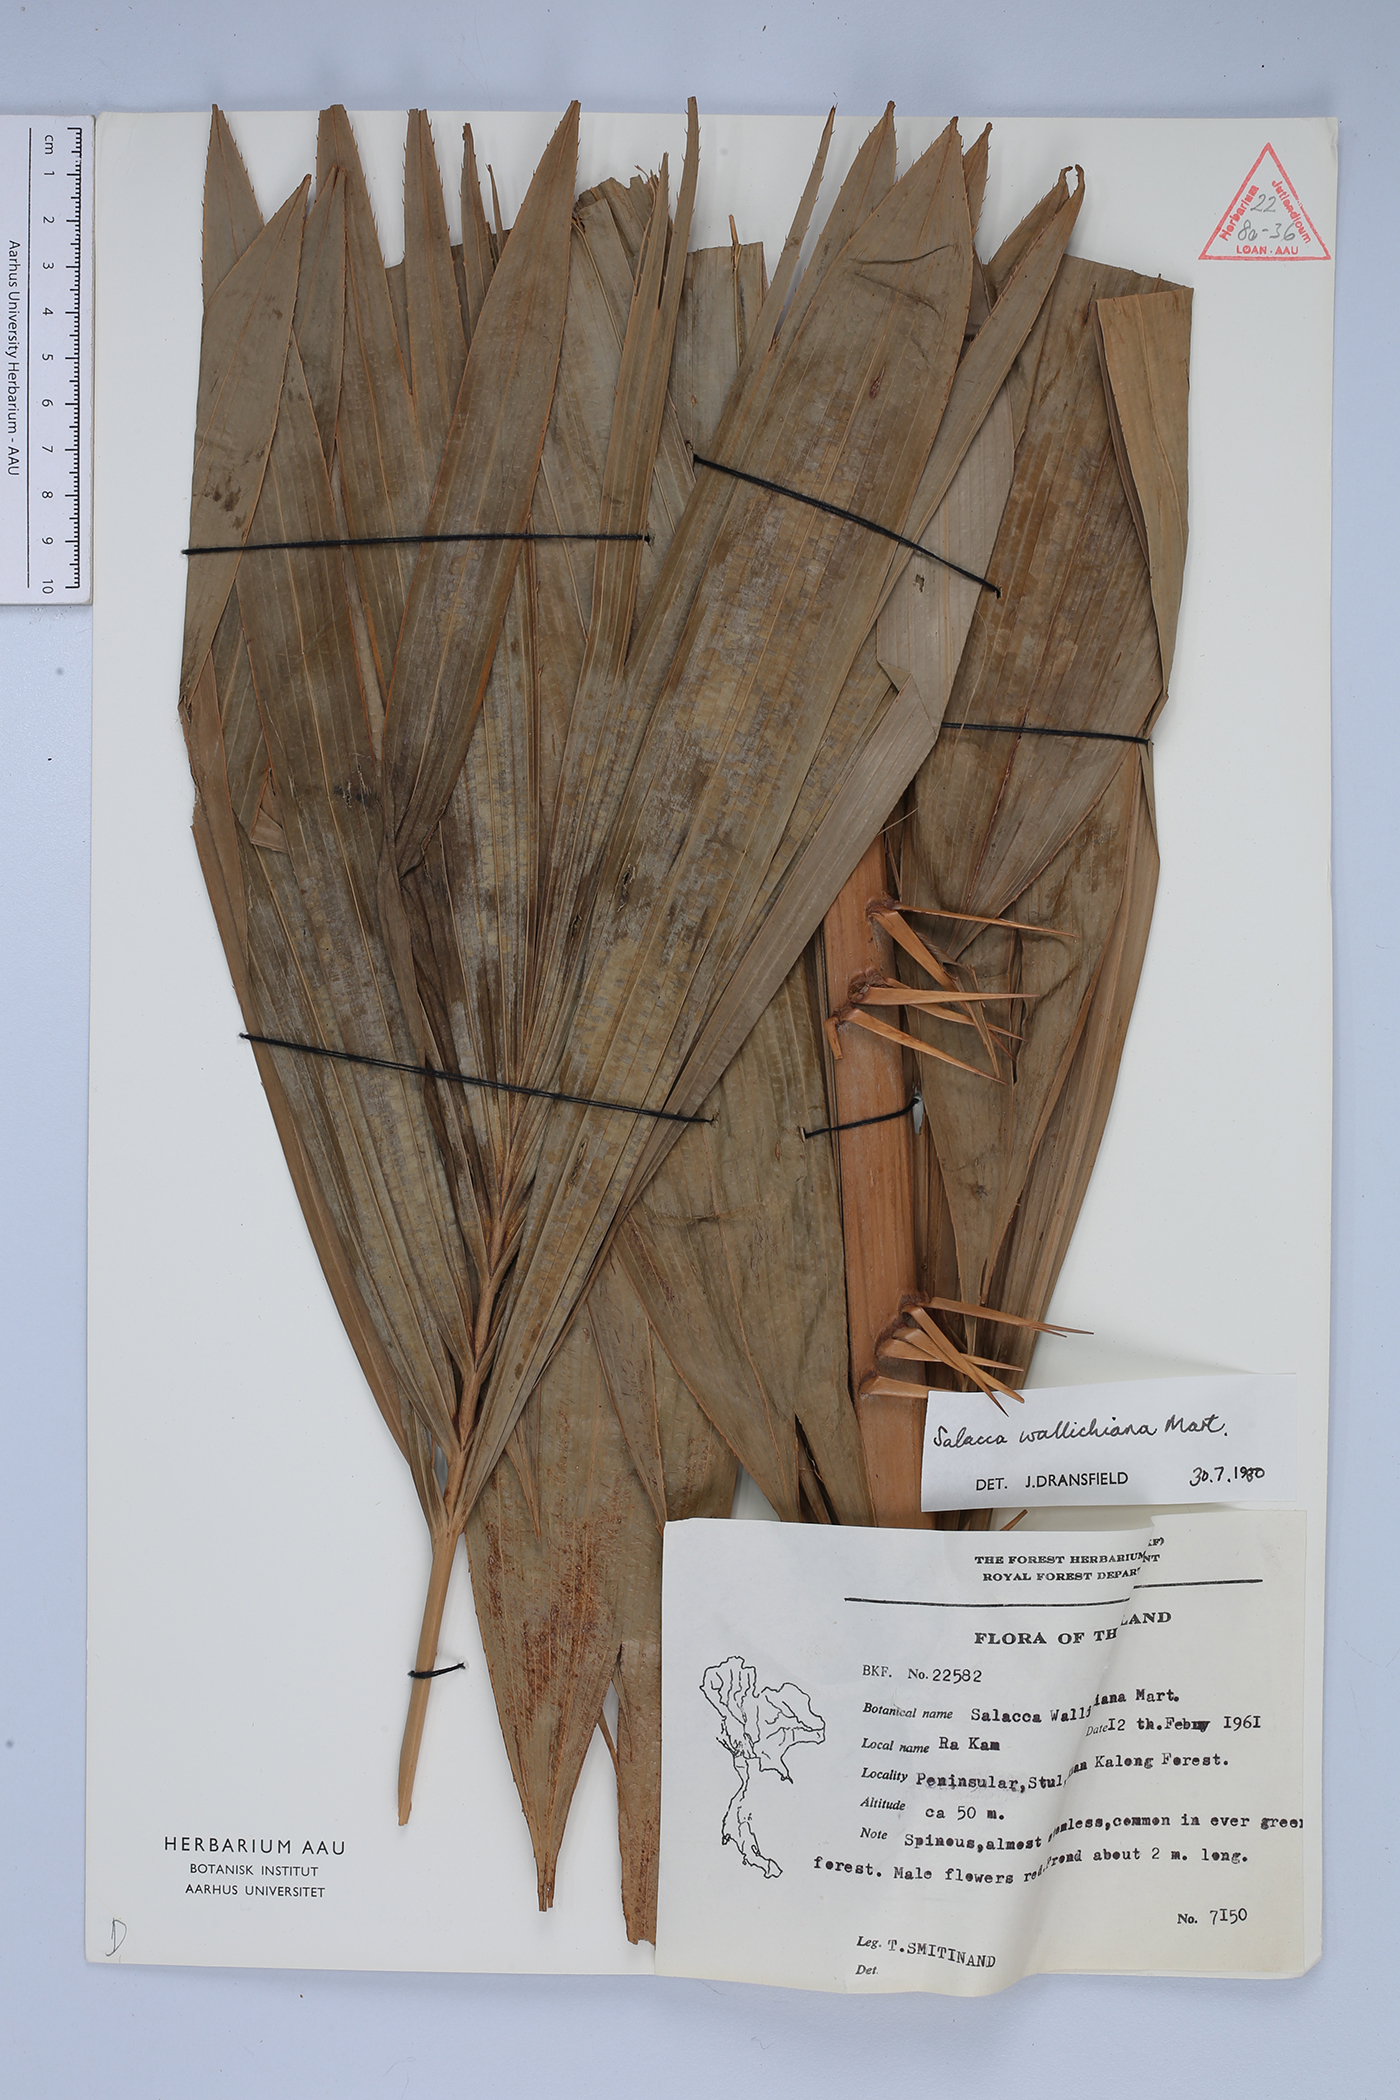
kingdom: Plantae
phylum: Tracheophyta
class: Liliopsida
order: Arecales
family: Arecaceae
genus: Salacca
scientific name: Salacca wallichiana
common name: Rakum palm
